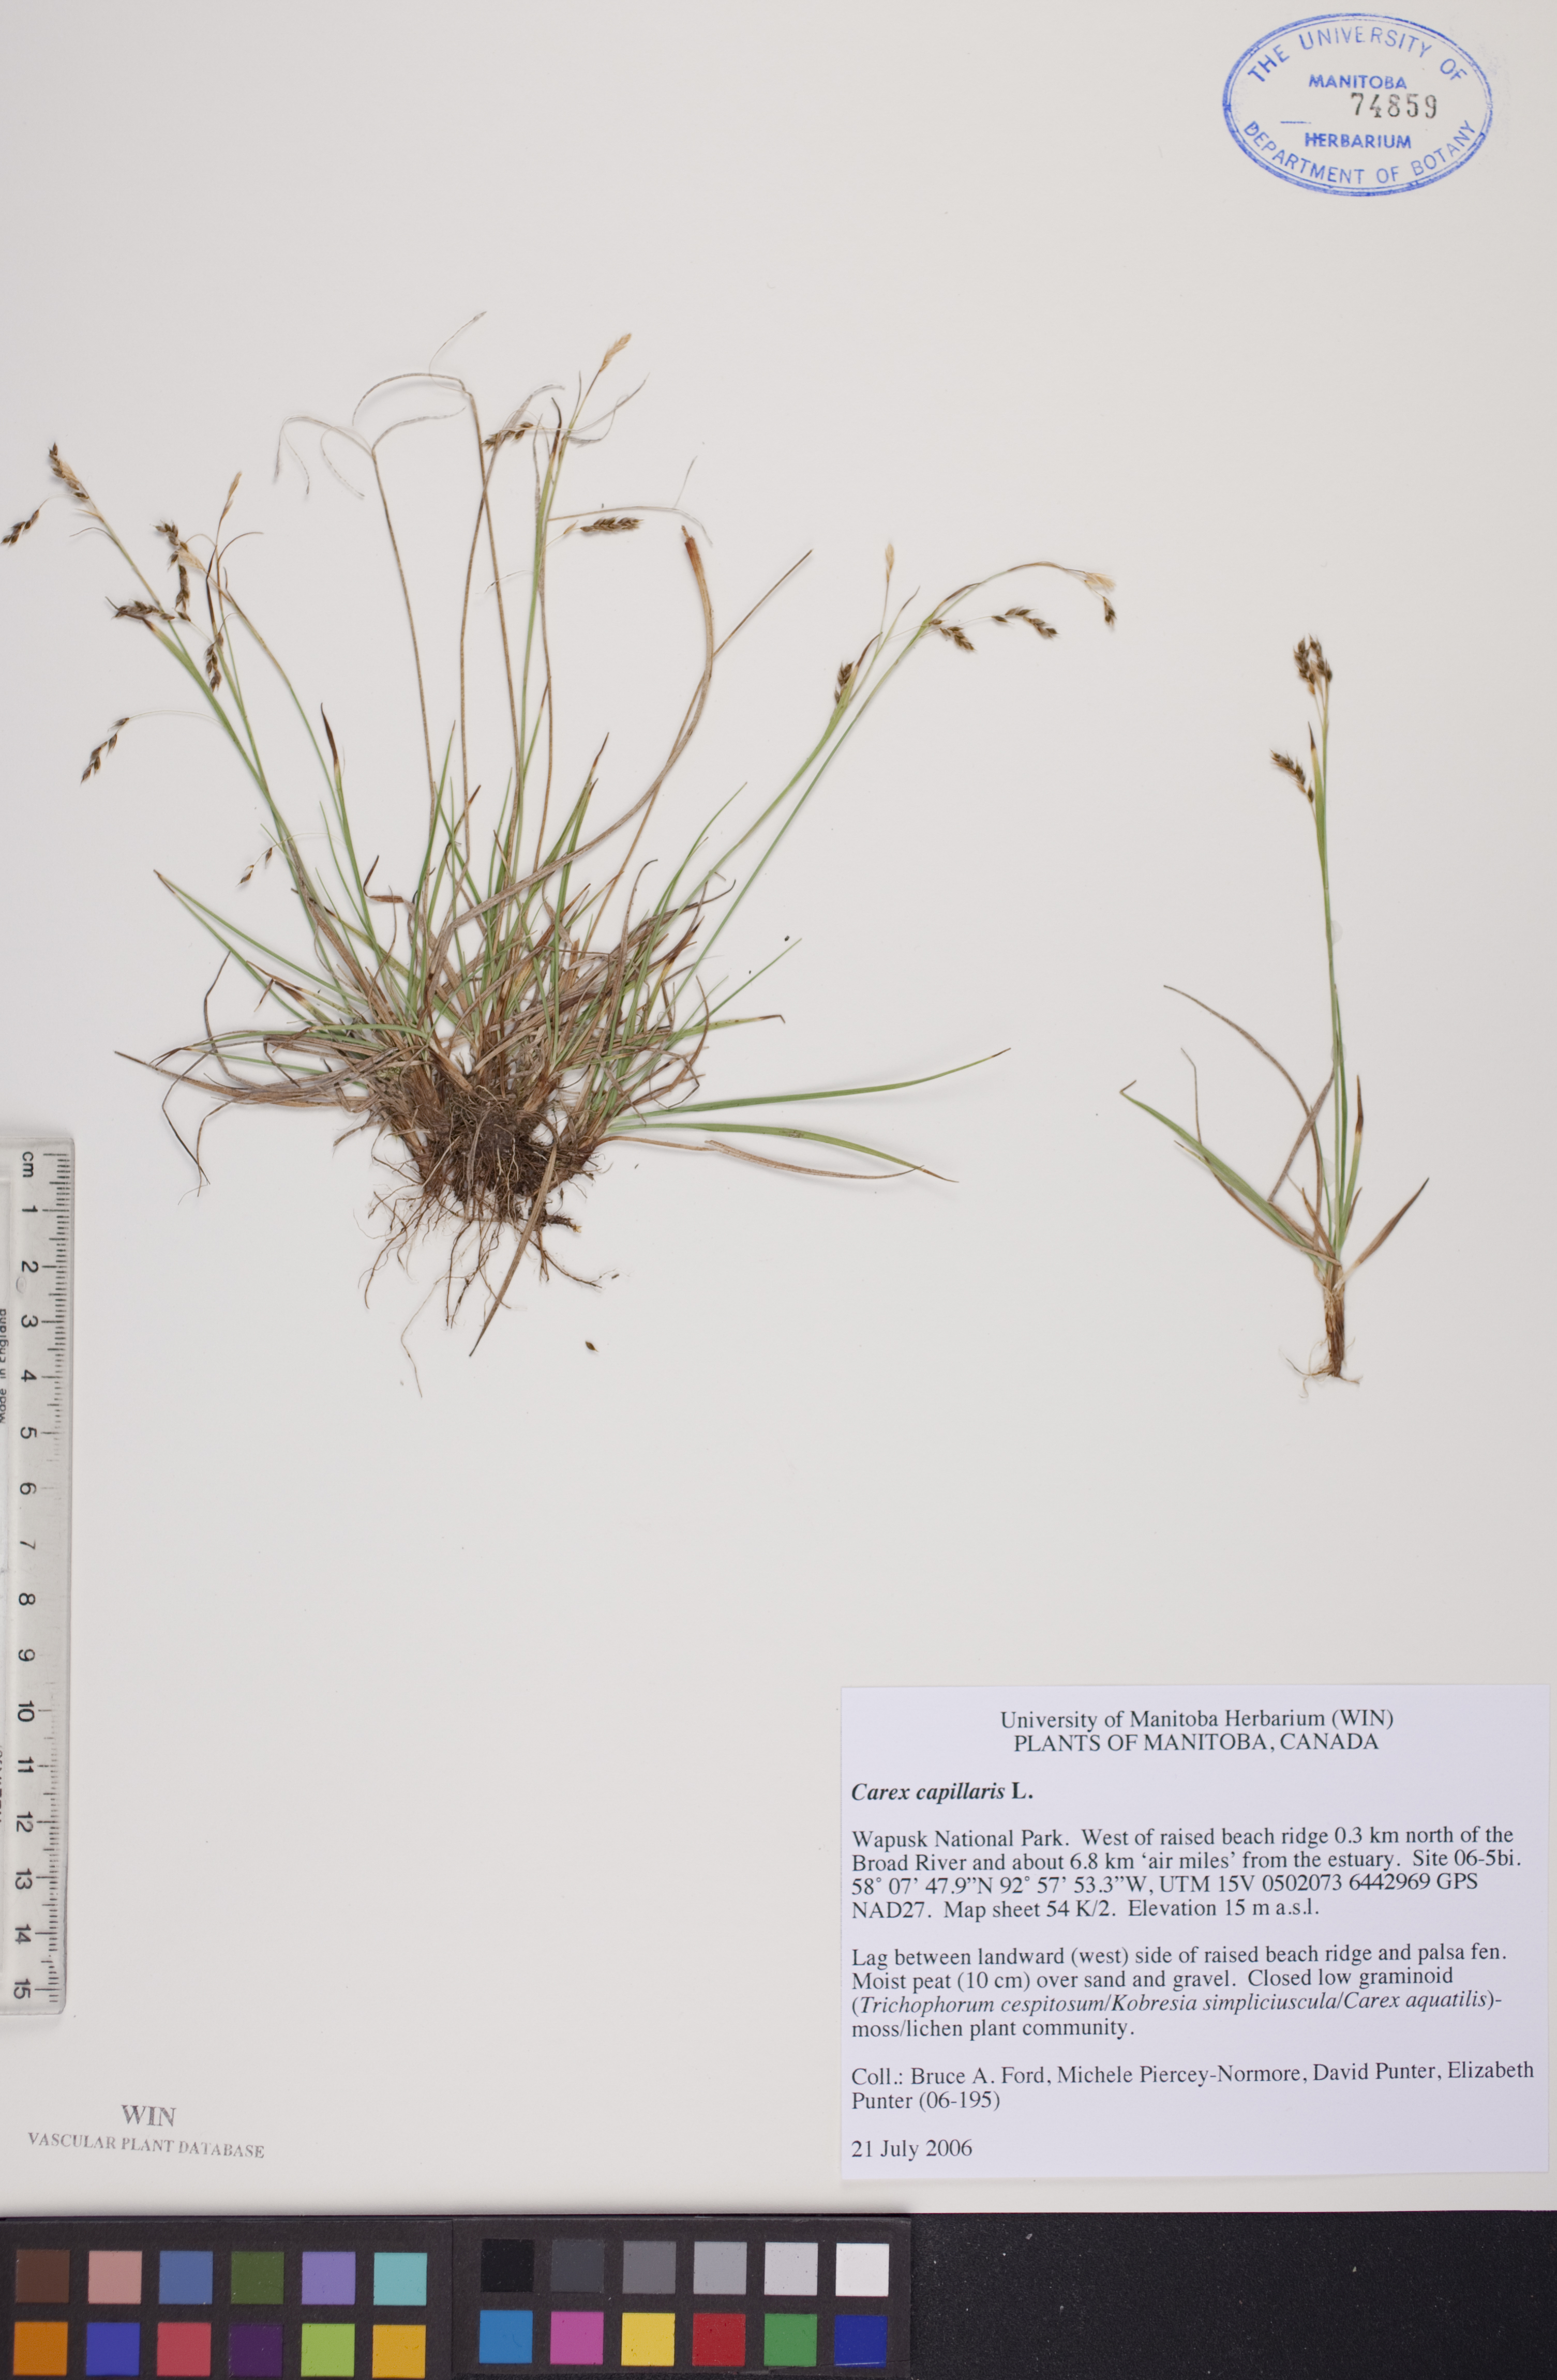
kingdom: Plantae
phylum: Tracheophyta
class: Liliopsida
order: Poales
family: Cyperaceae
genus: Carex
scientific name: Carex capillaris
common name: Hair sedge
